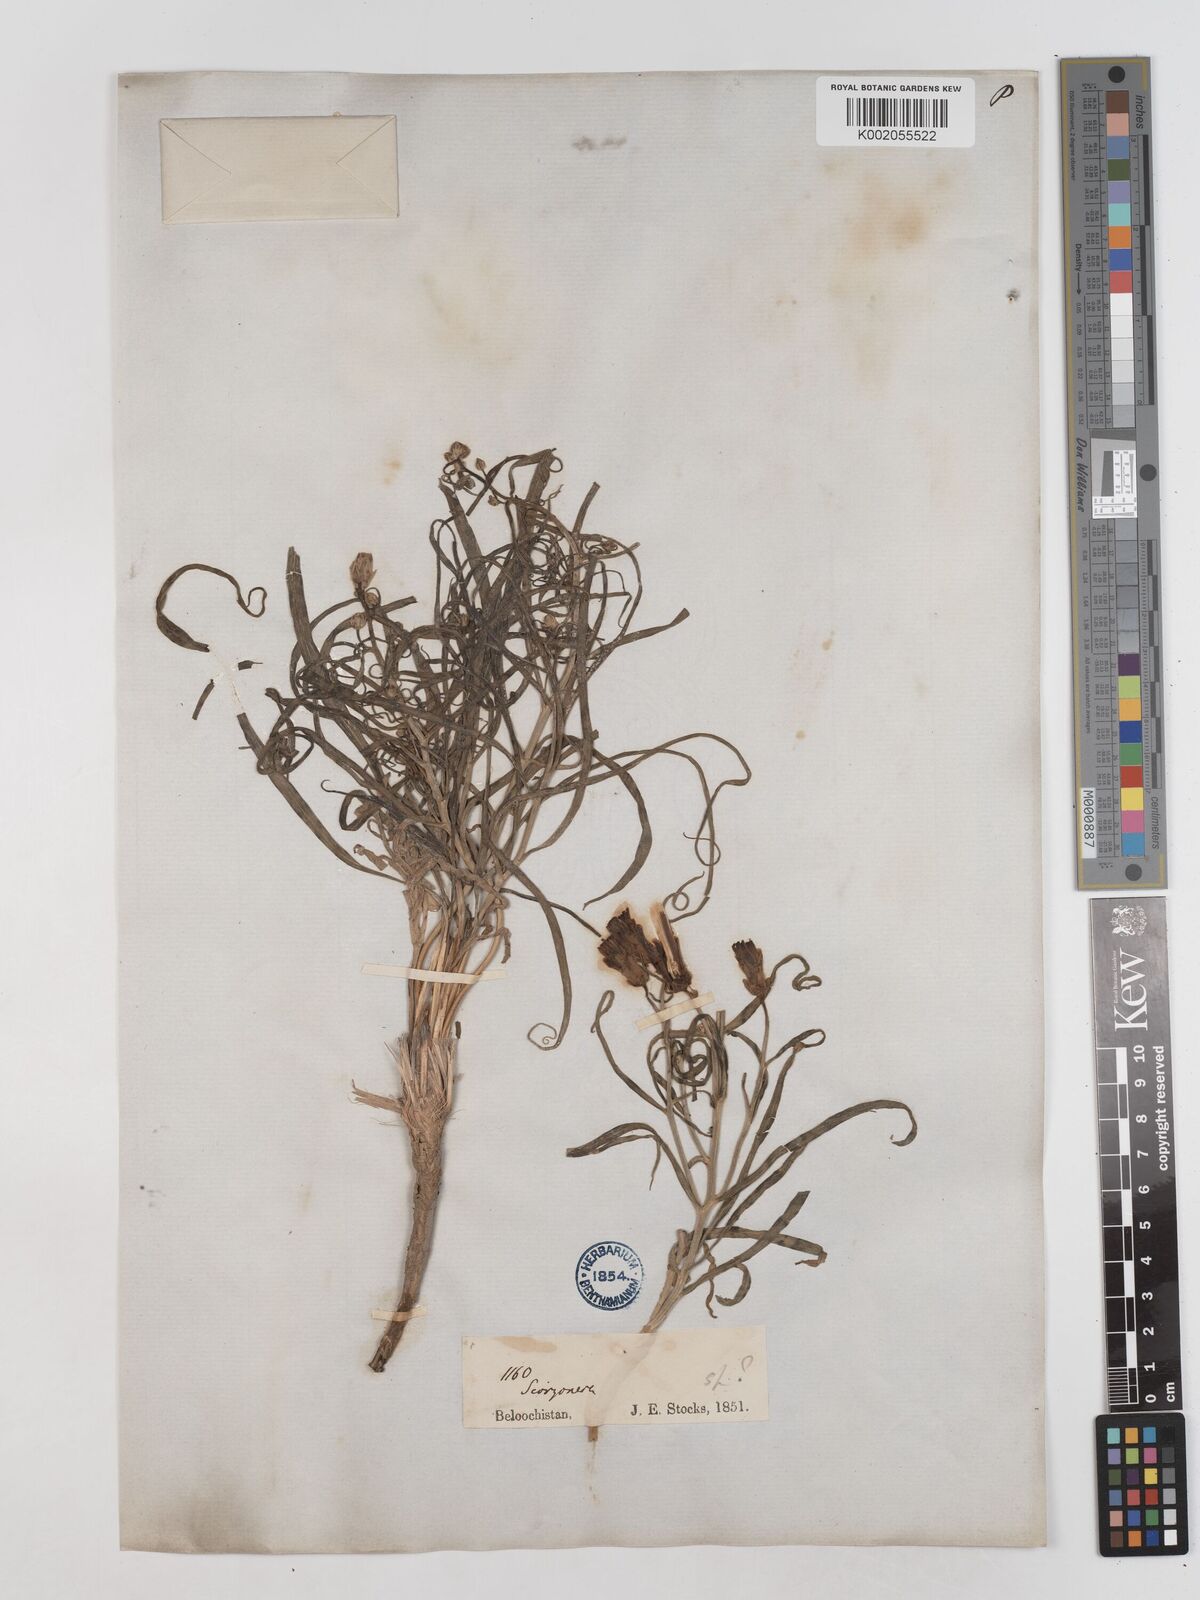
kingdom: Plantae
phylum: Tracheophyta
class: Magnoliopsida
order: Asterales
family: Asteraceae
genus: Takhtajaniantha
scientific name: Takhtajaniantha pusilla
